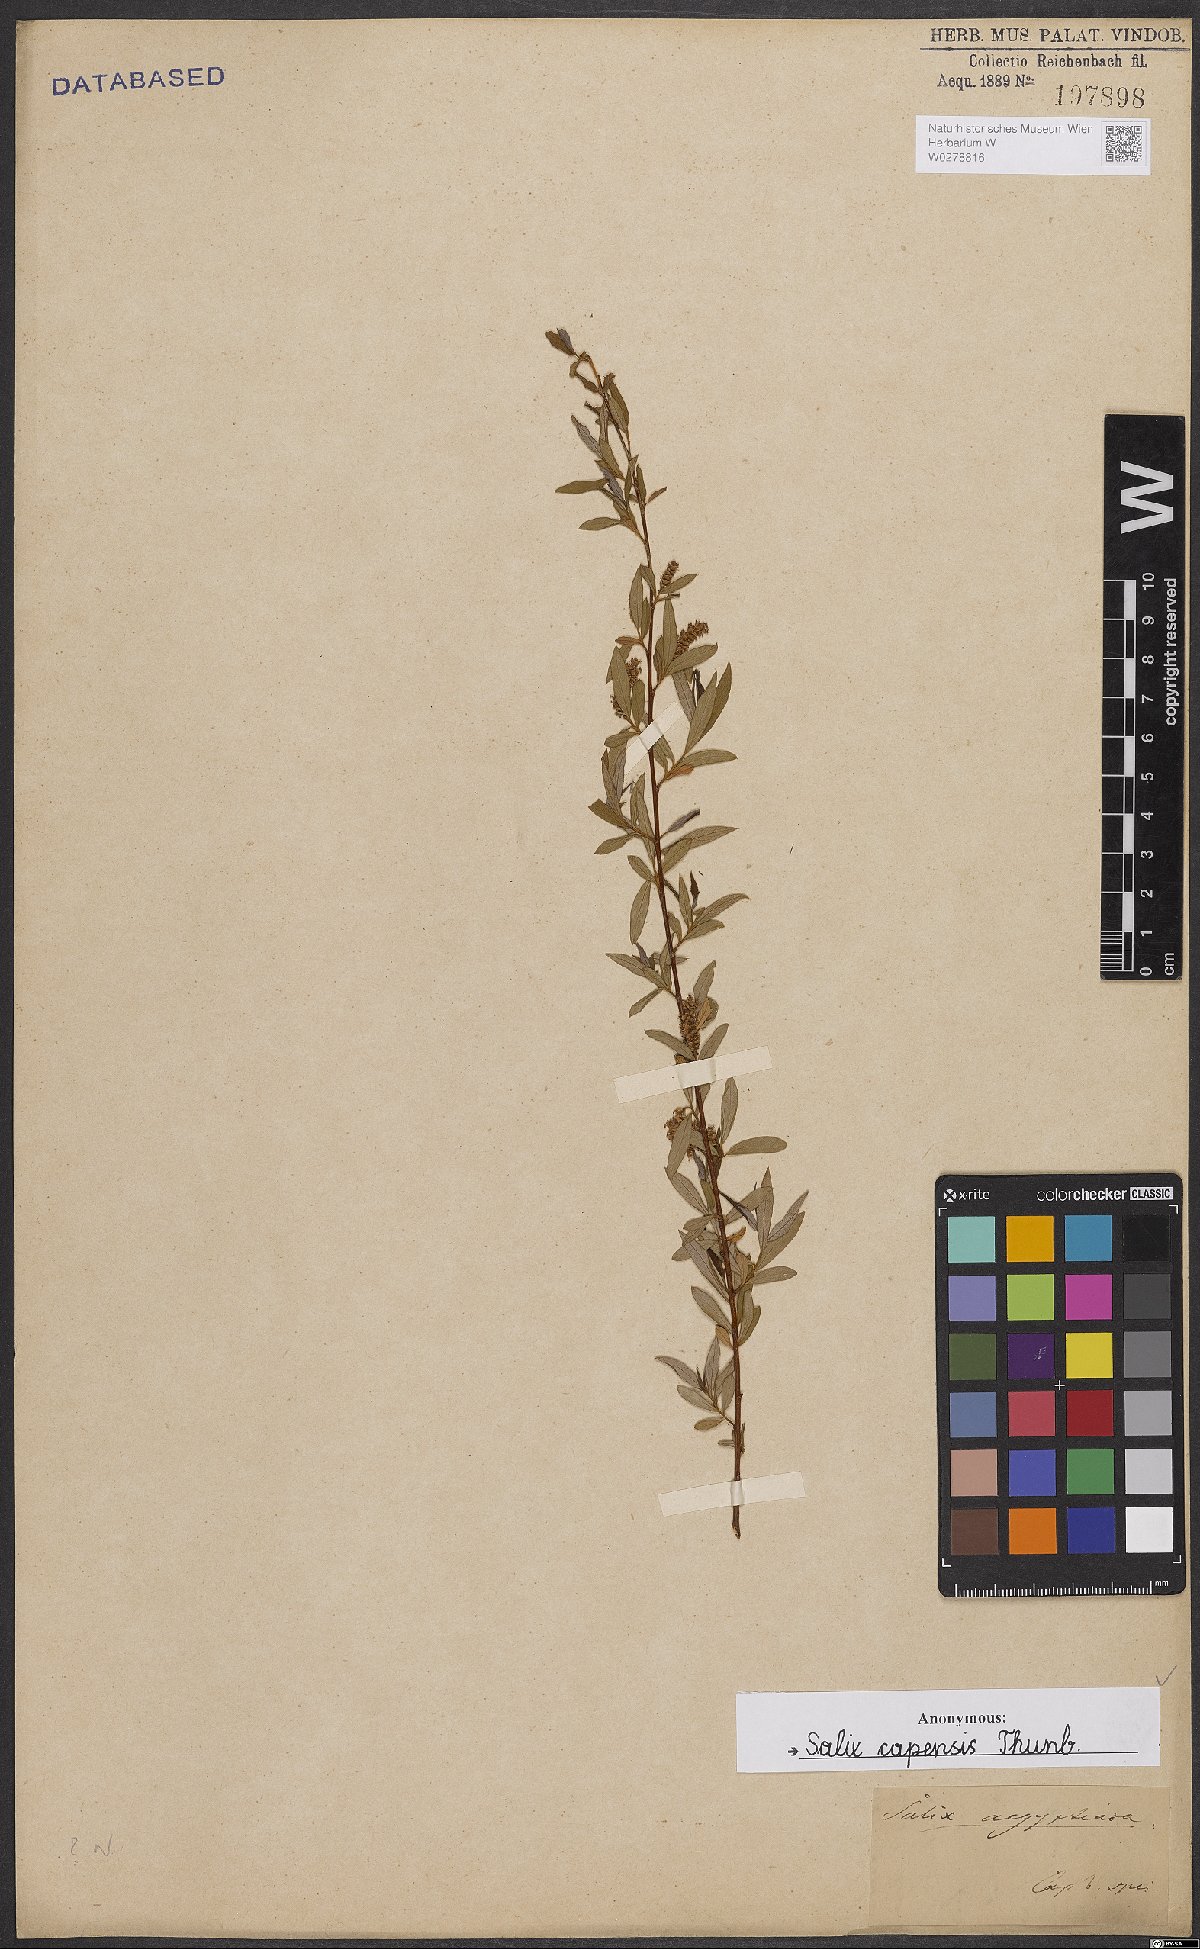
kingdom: Plantae
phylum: Tracheophyta
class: Magnoliopsida
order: Malpighiales
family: Salicaceae
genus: Salix
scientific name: Salix mucronata
